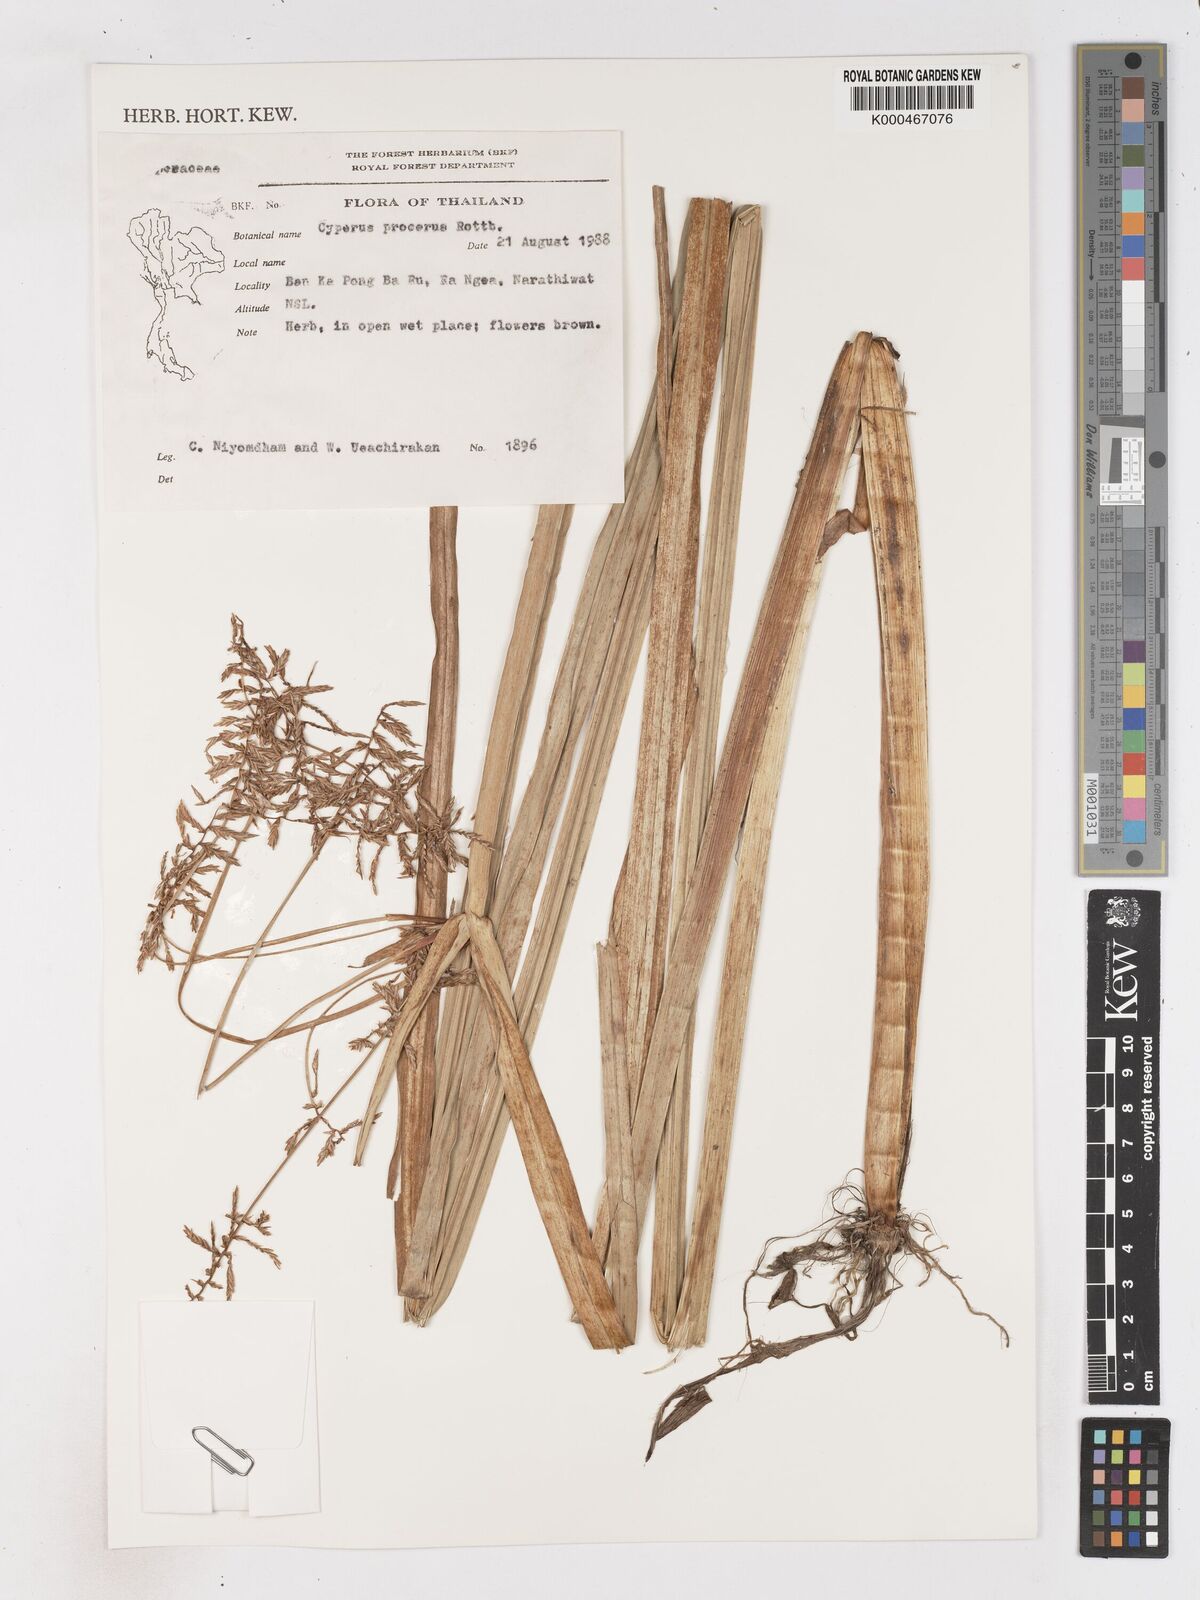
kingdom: Plantae
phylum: Tracheophyta
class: Liliopsida
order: Poales
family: Cyperaceae
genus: Cyperus
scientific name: Cyperus procerus
